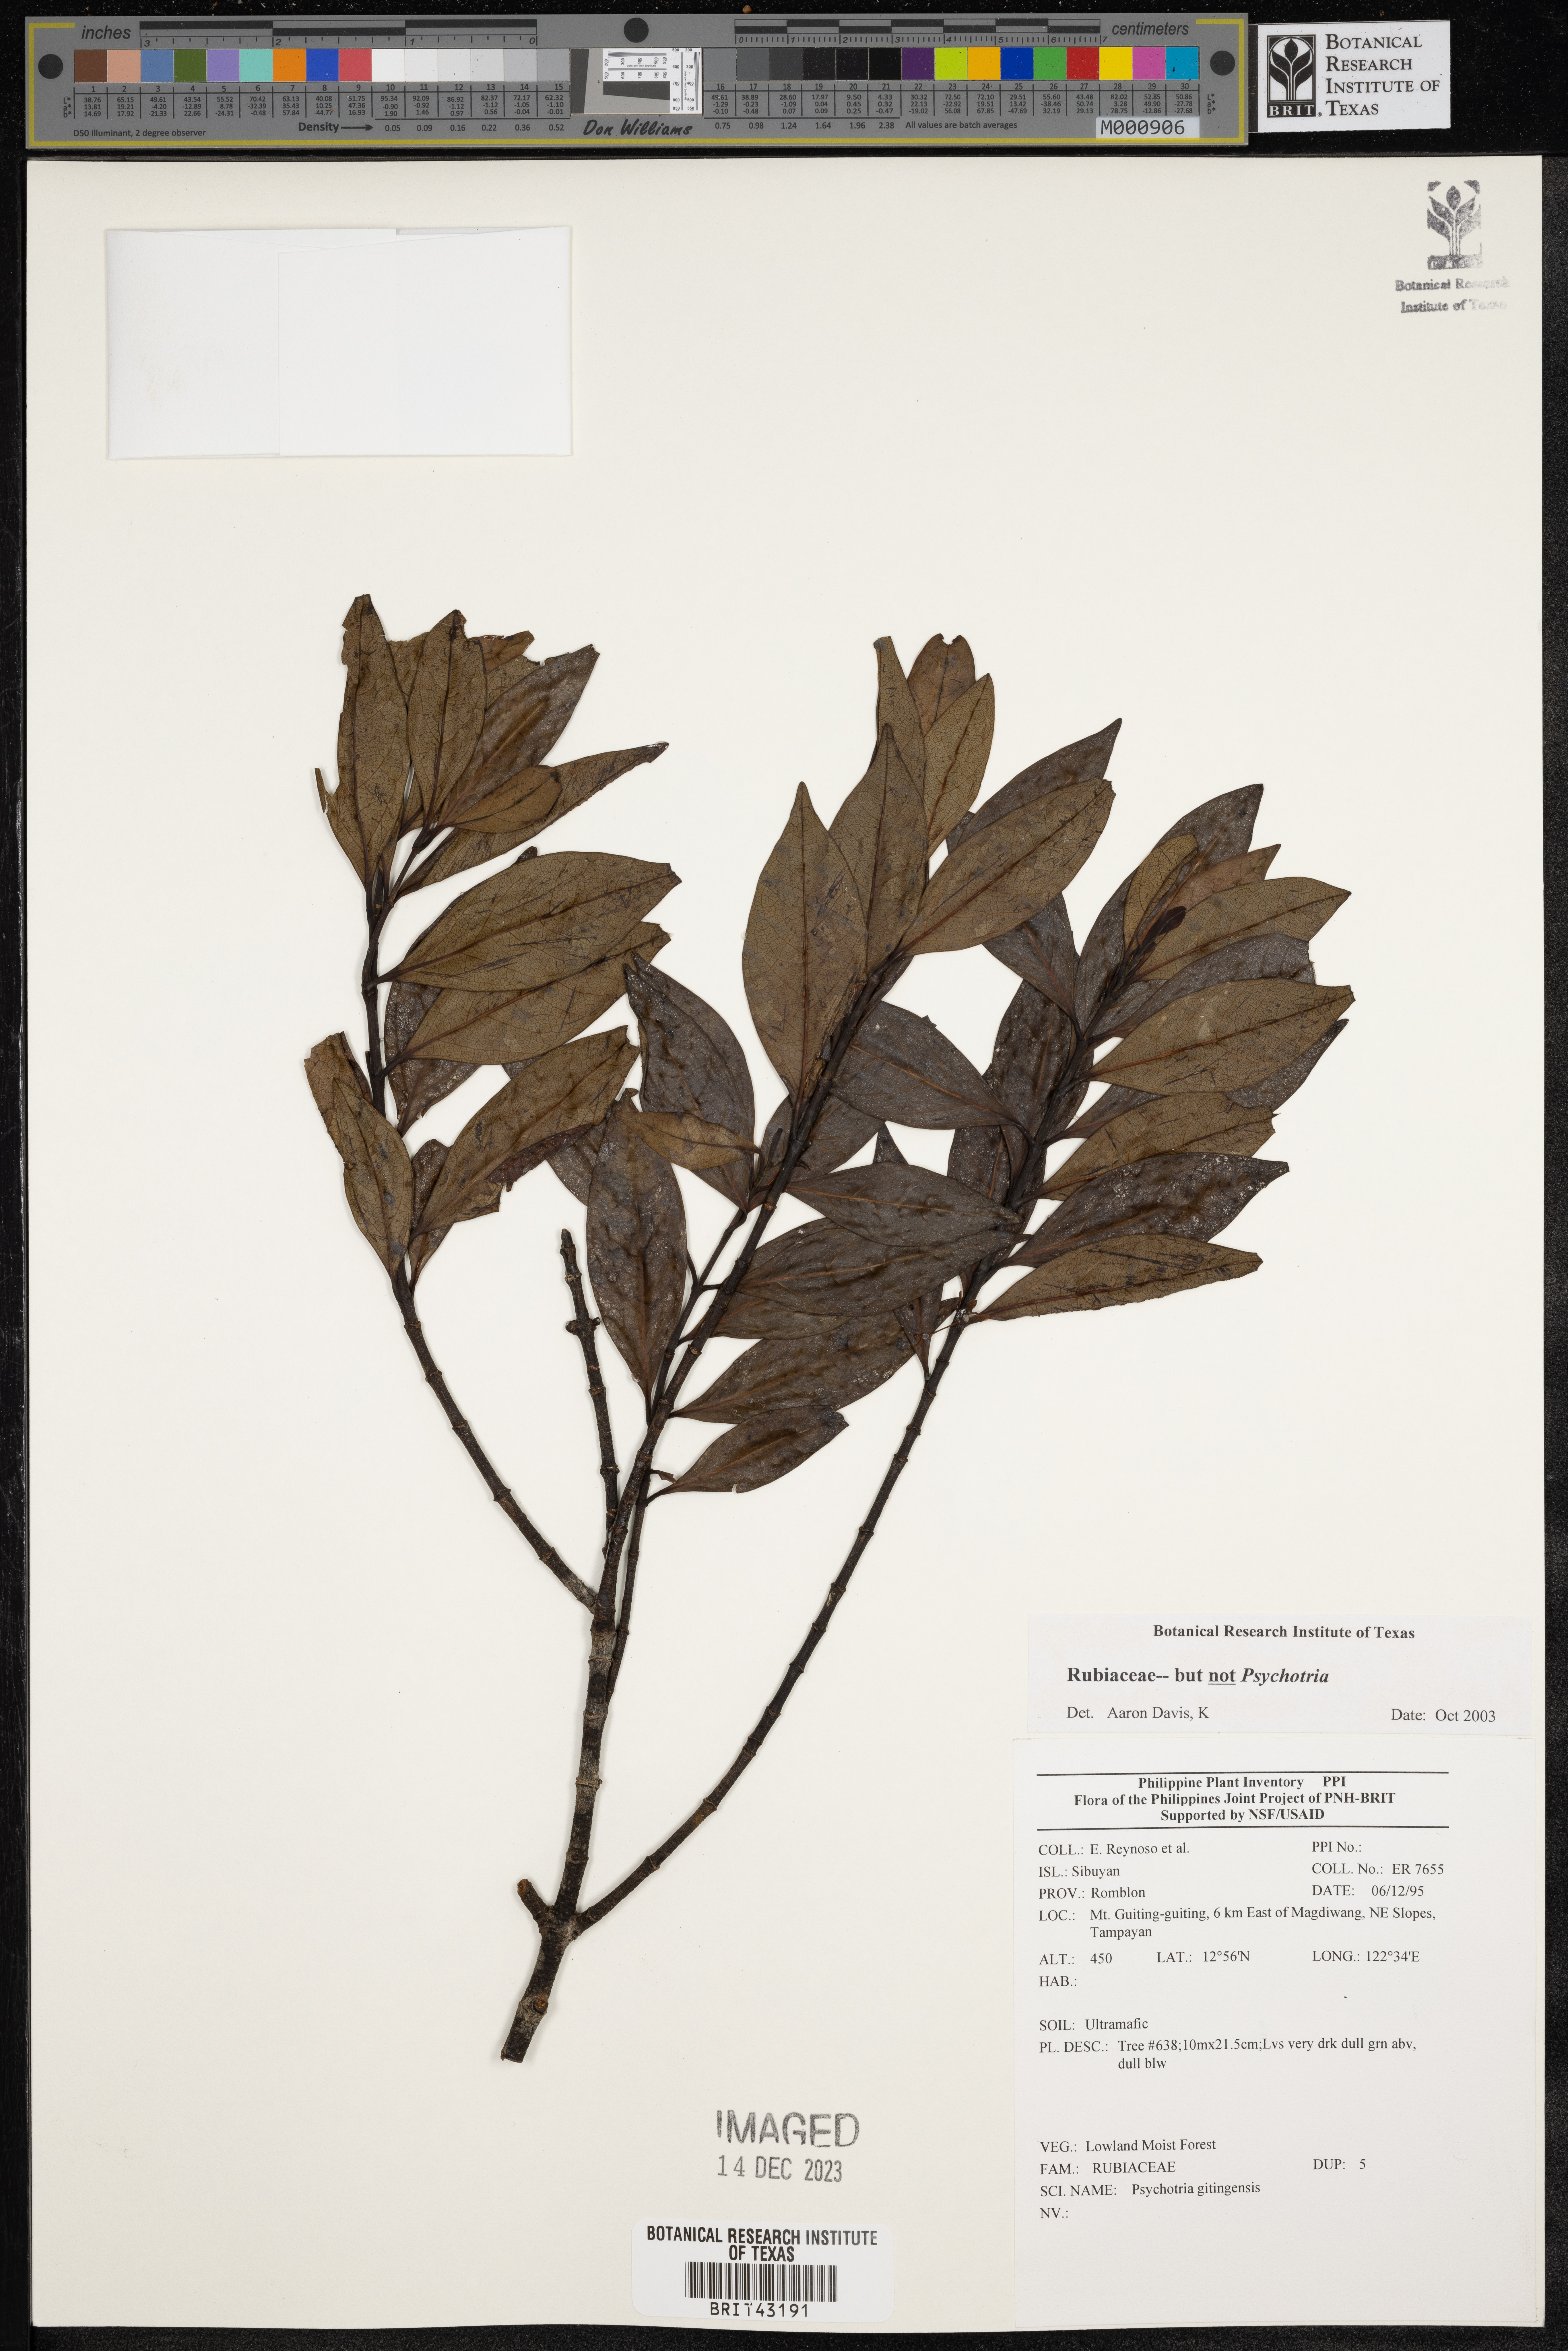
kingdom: Plantae
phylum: Tracheophyta
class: Magnoliopsida
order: Gentianales
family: Rubiaceae
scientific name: Rubiaceae
